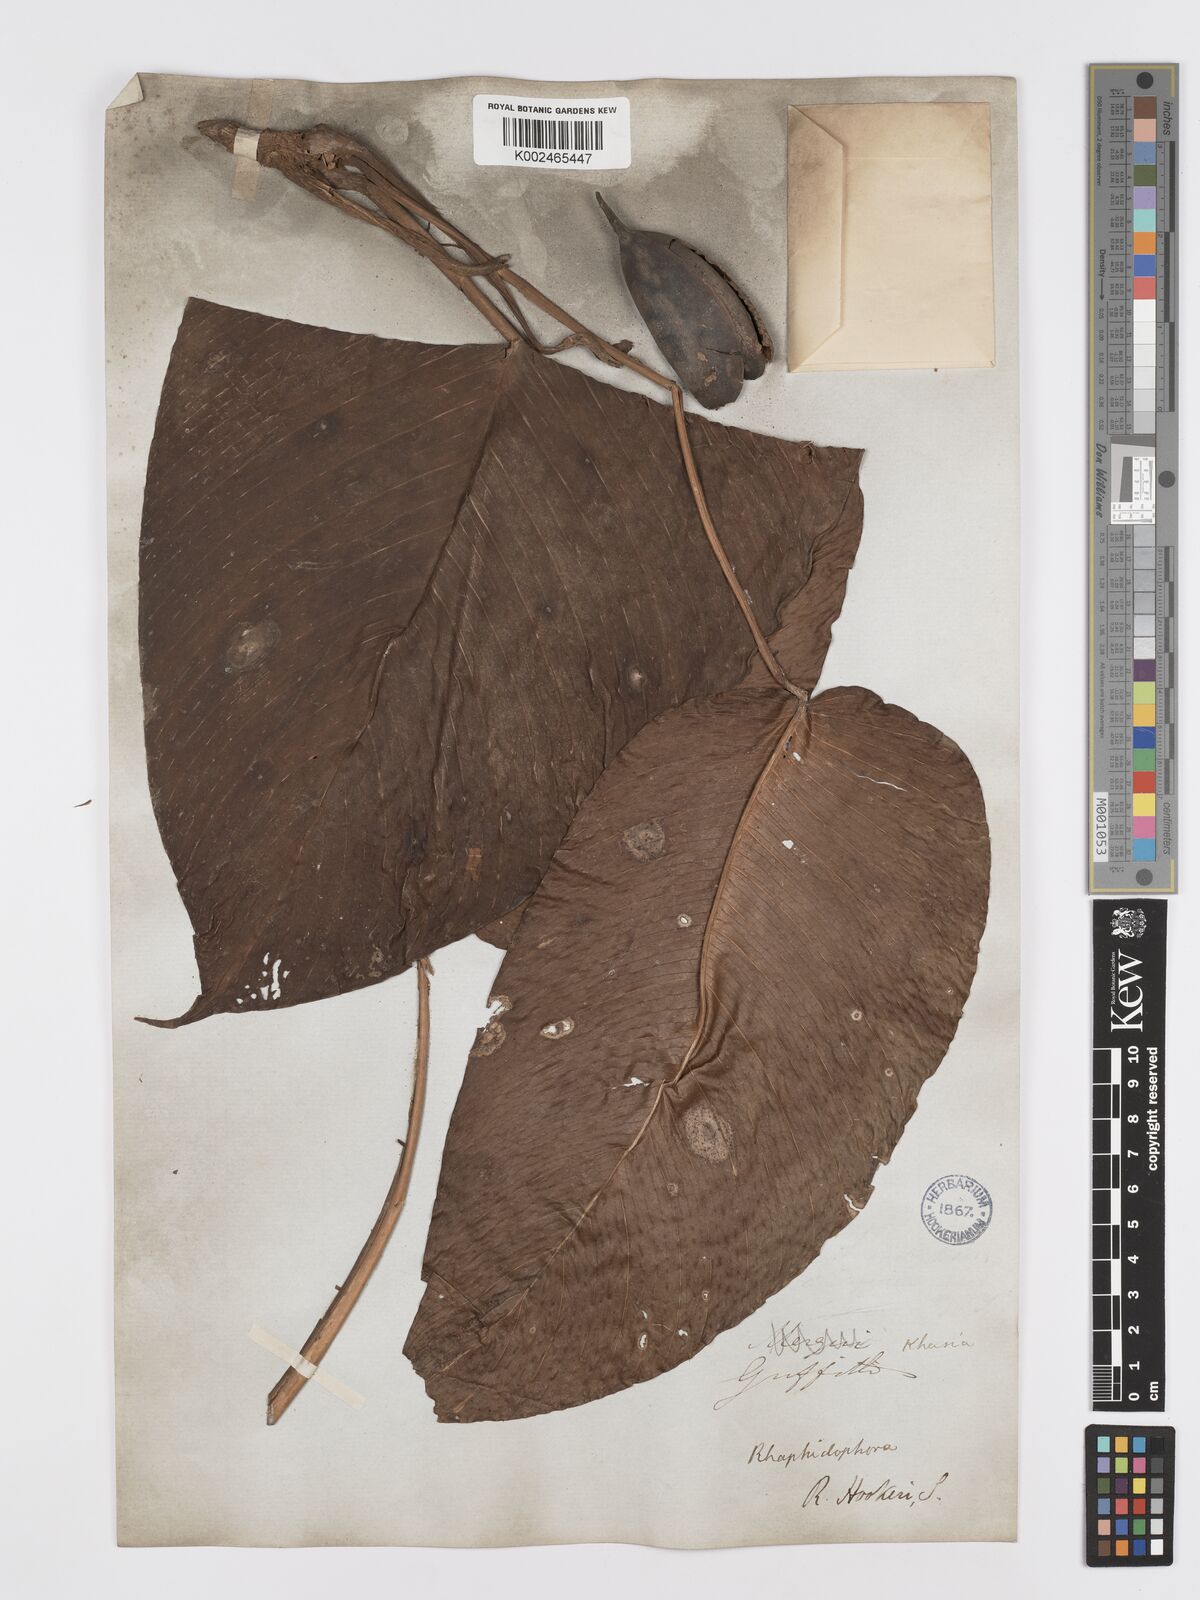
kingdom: Plantae
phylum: Tracheophyta
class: Liliopsida
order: Alismatales
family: Araceae
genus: Rhaphidophora
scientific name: Rhaphidophora hookeri
